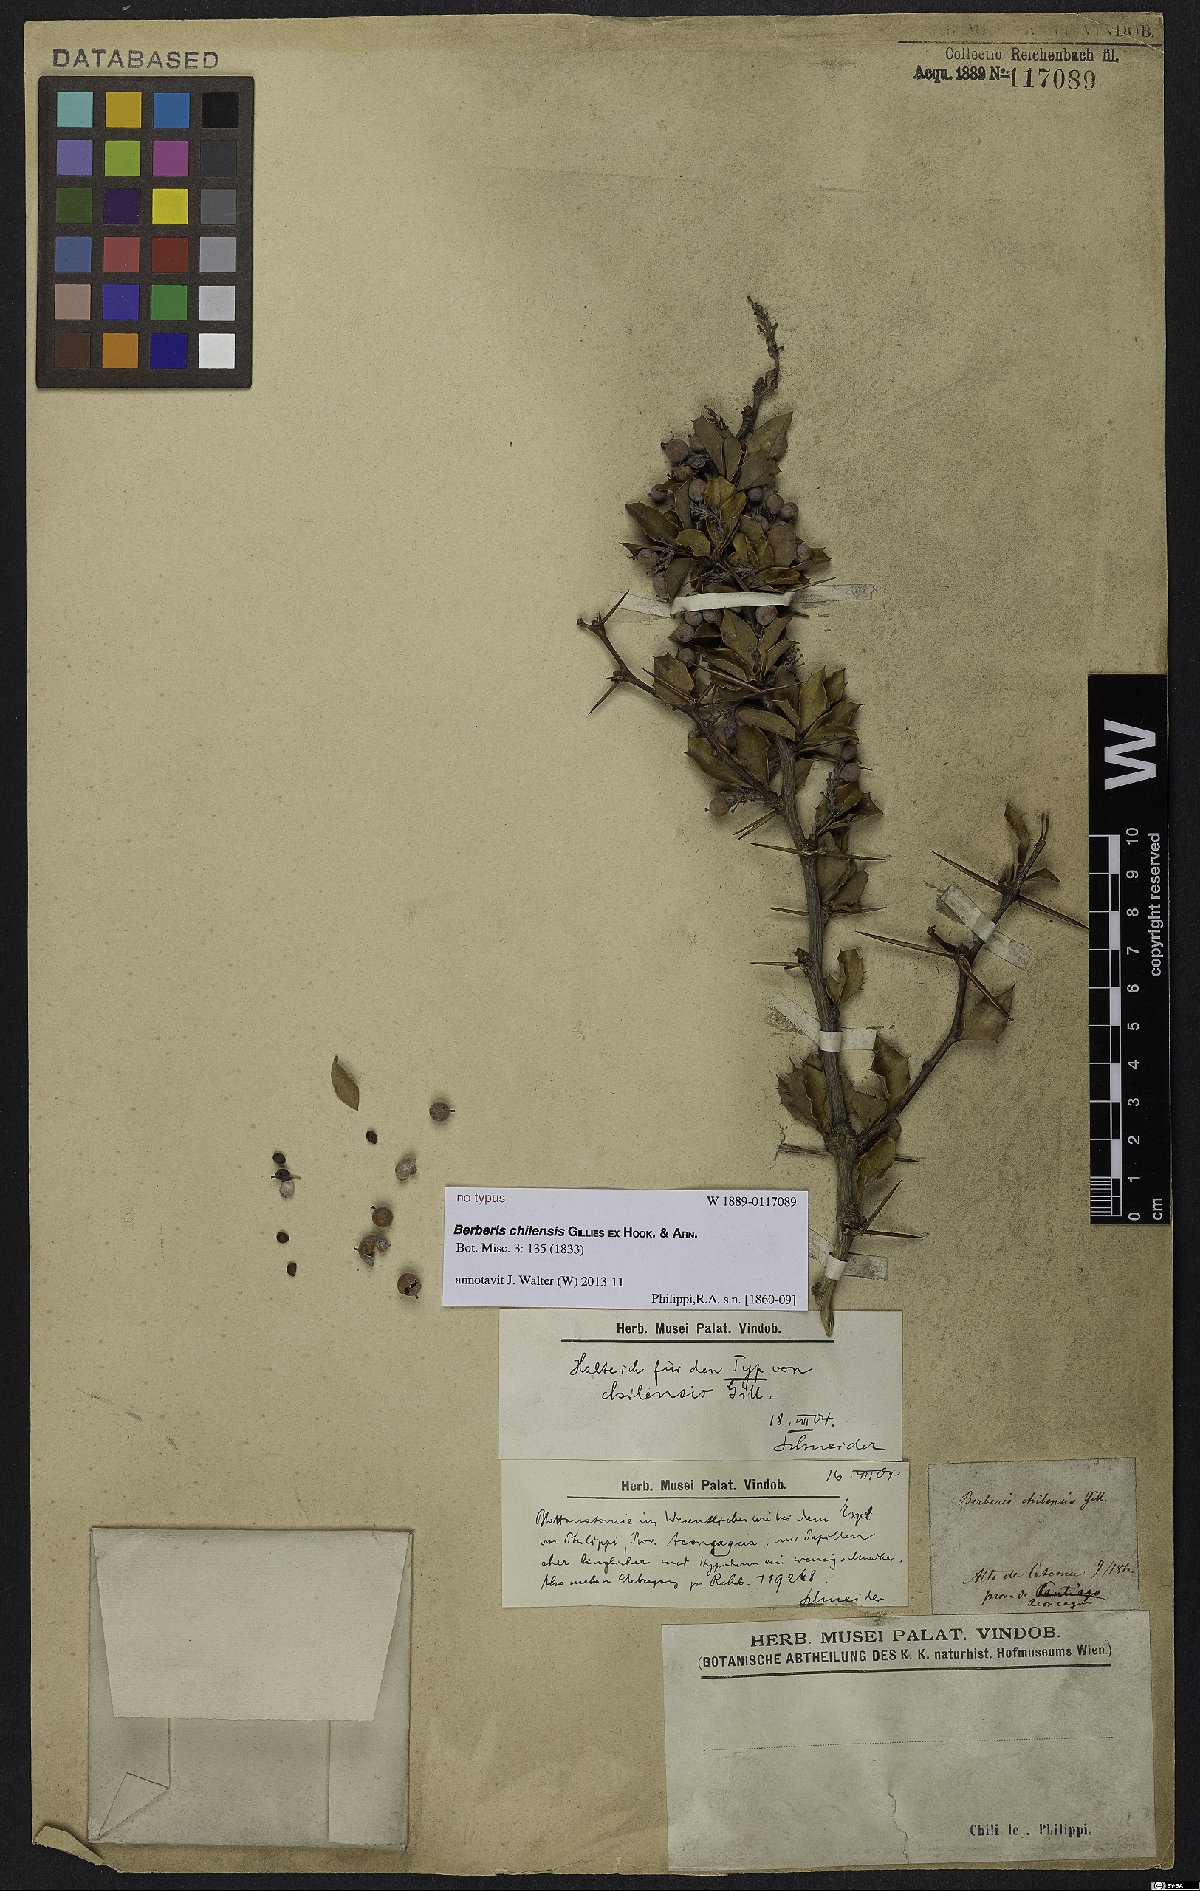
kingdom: Plantae
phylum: Tracheophyta
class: Magnoliopsida
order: Ranunculales
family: Berberidaceae
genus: Berberis
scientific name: Berberis chilensis
